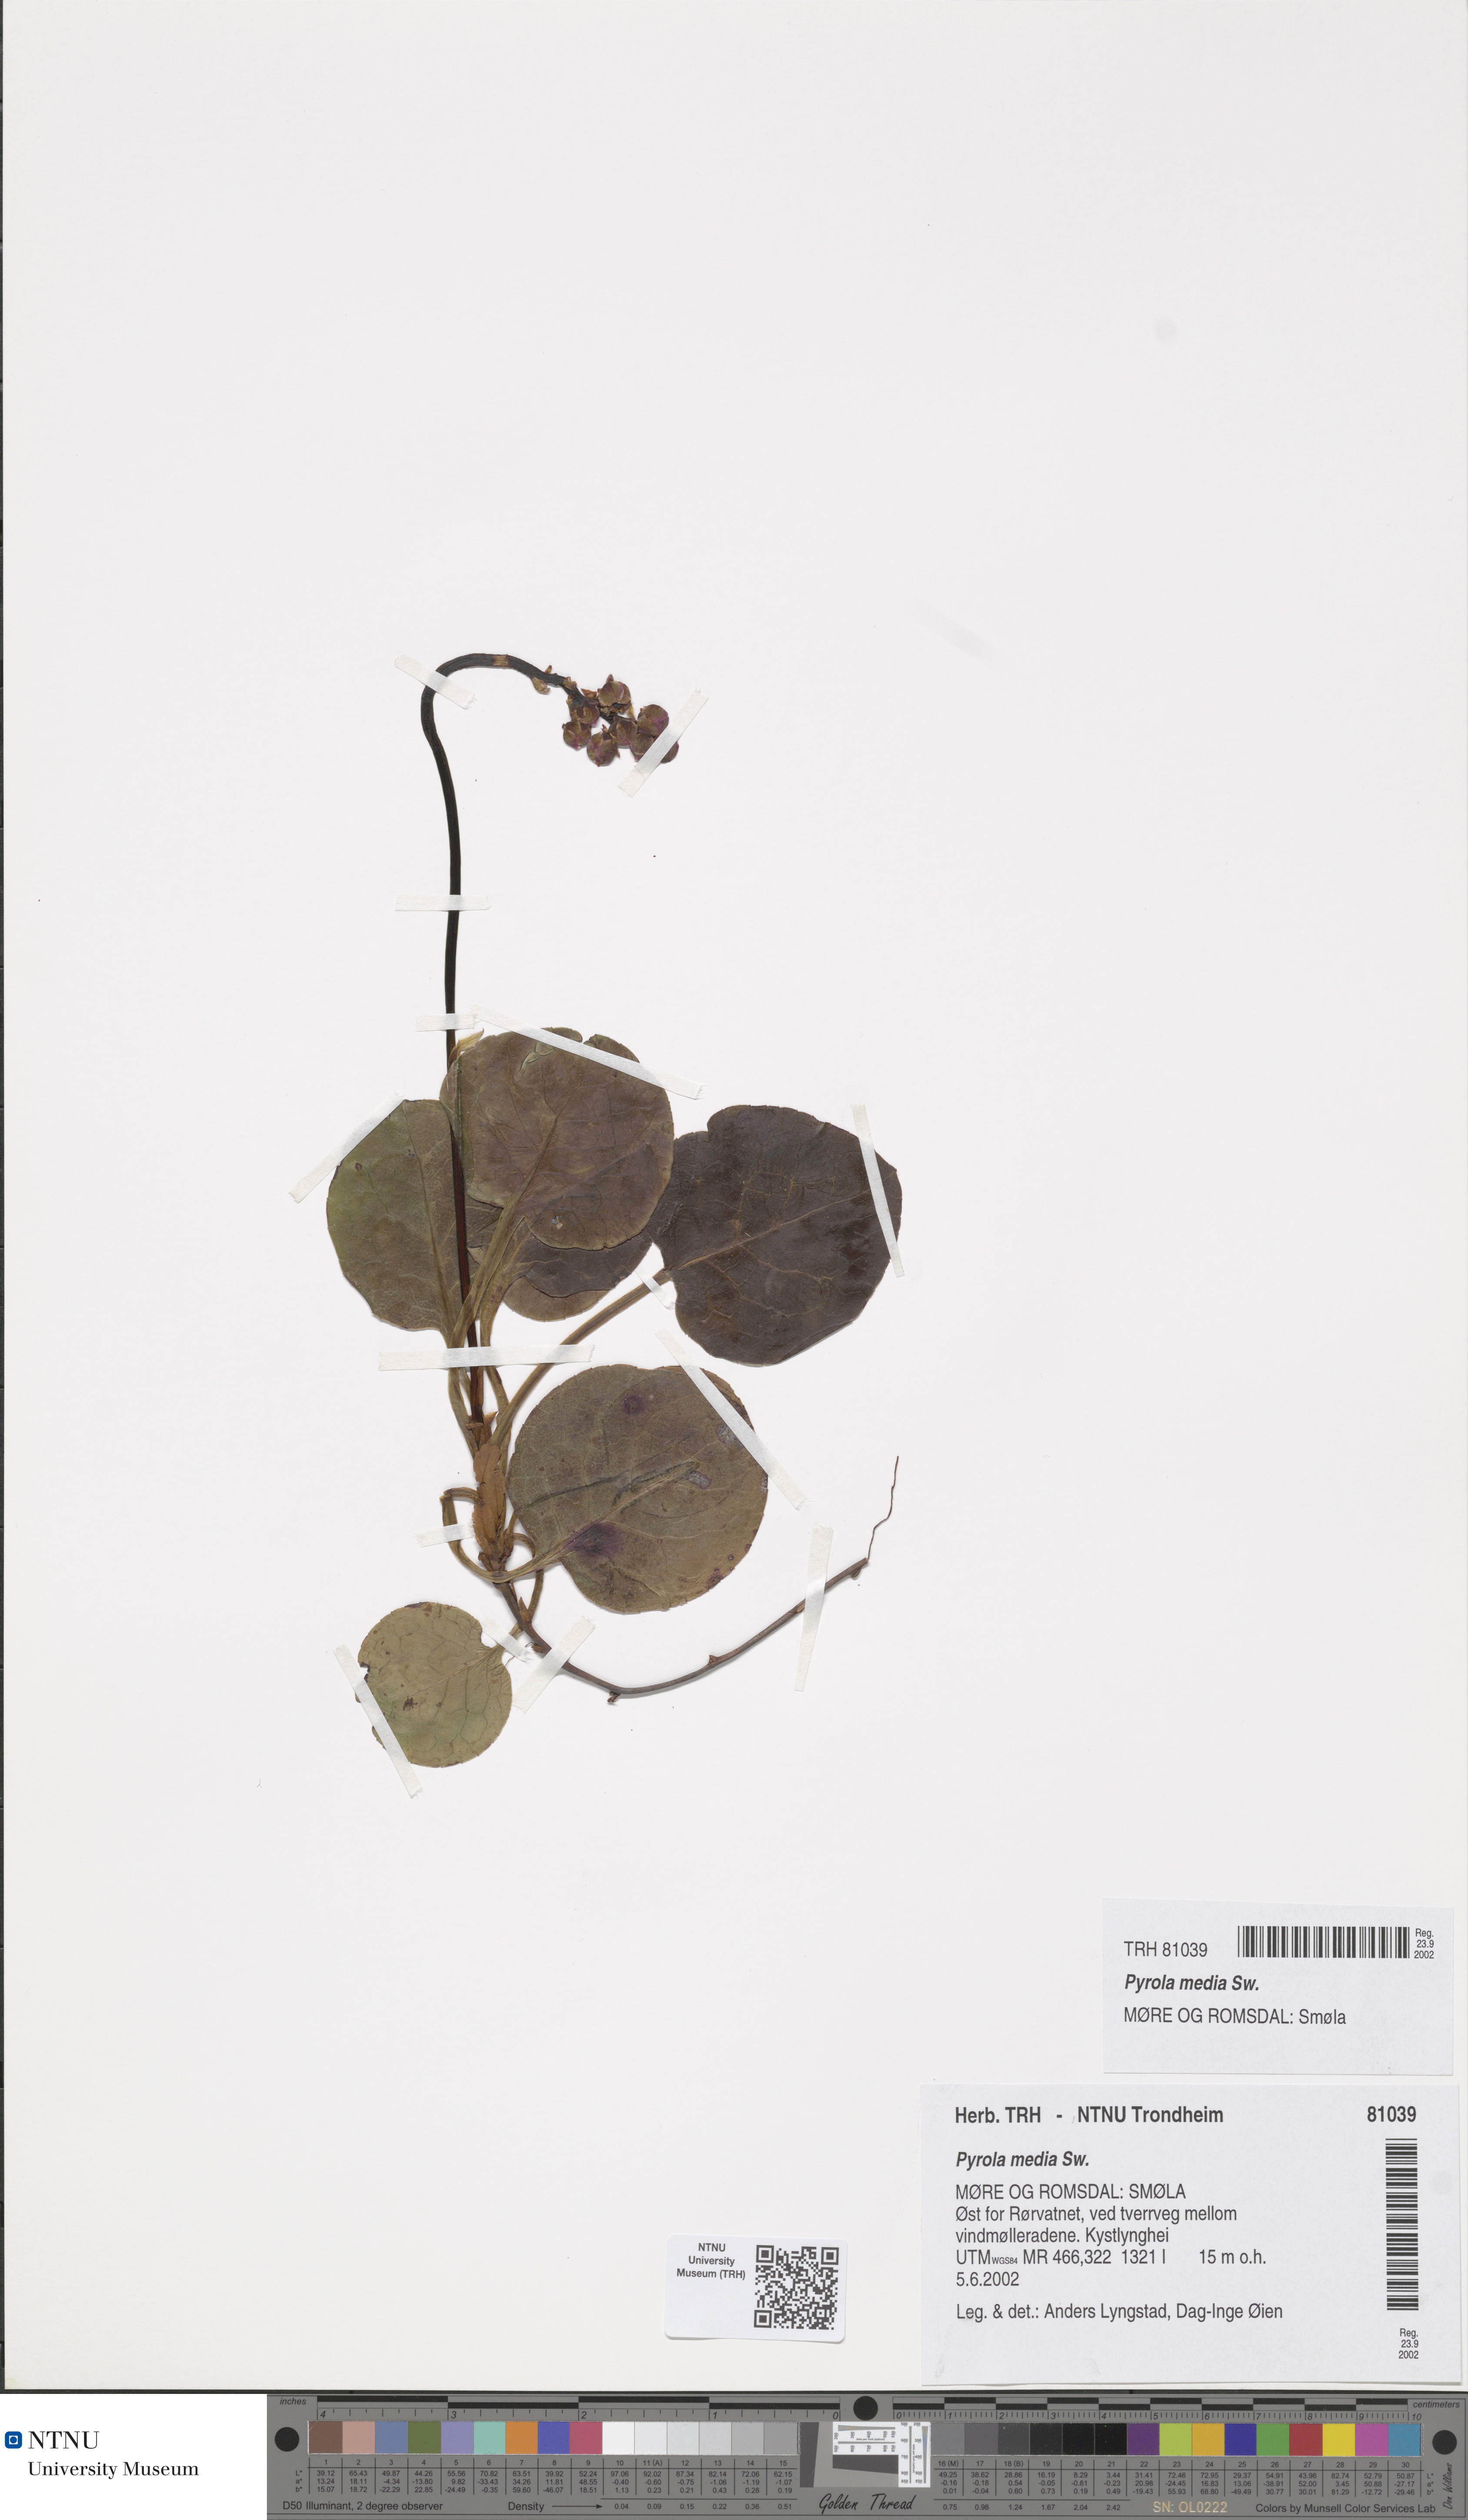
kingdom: Plantae
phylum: Tracheophyta
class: Magnoliopsida
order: Ericales
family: Ericaceae
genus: Pyrola
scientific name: Pyrola media
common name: Intermediate wintergreen
